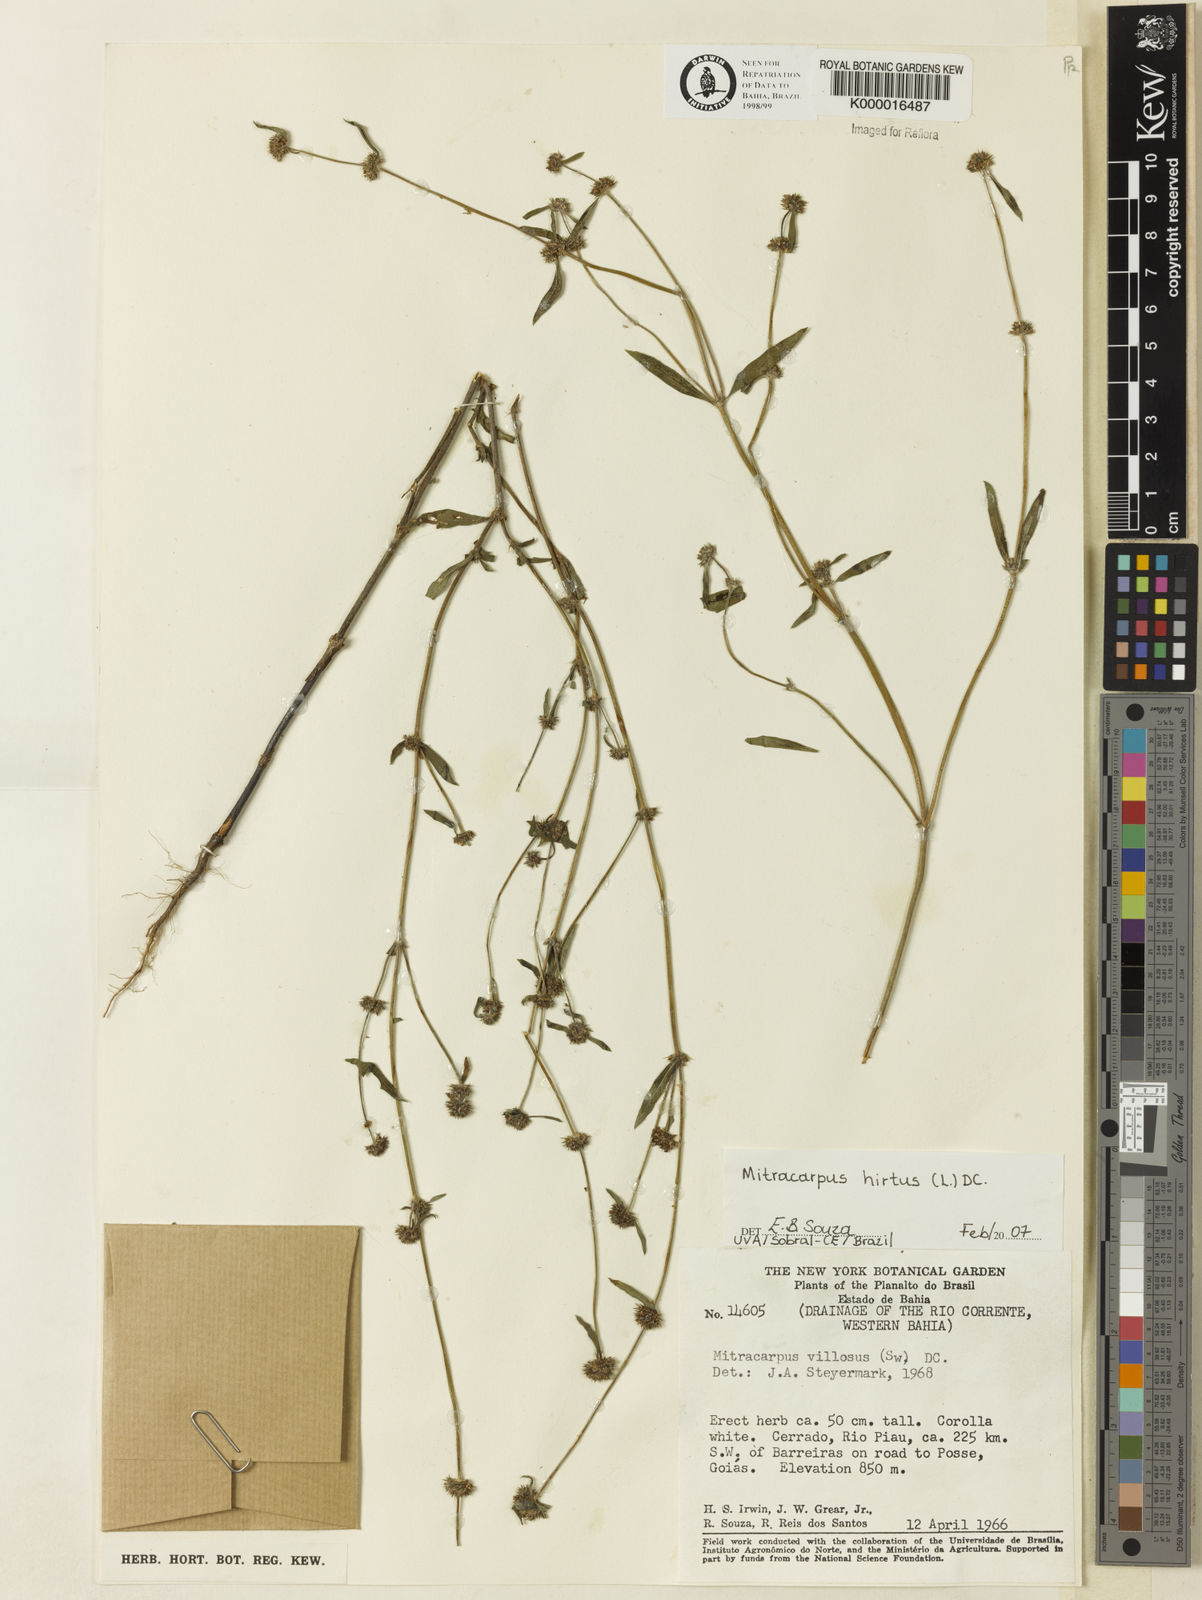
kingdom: Plantae
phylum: Tracheophyta
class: Magnoliopsida
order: Gentianales
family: Rubiaceae
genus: Mitracarpus
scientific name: Mitracarpus hirtus
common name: Tropical girdlepod
